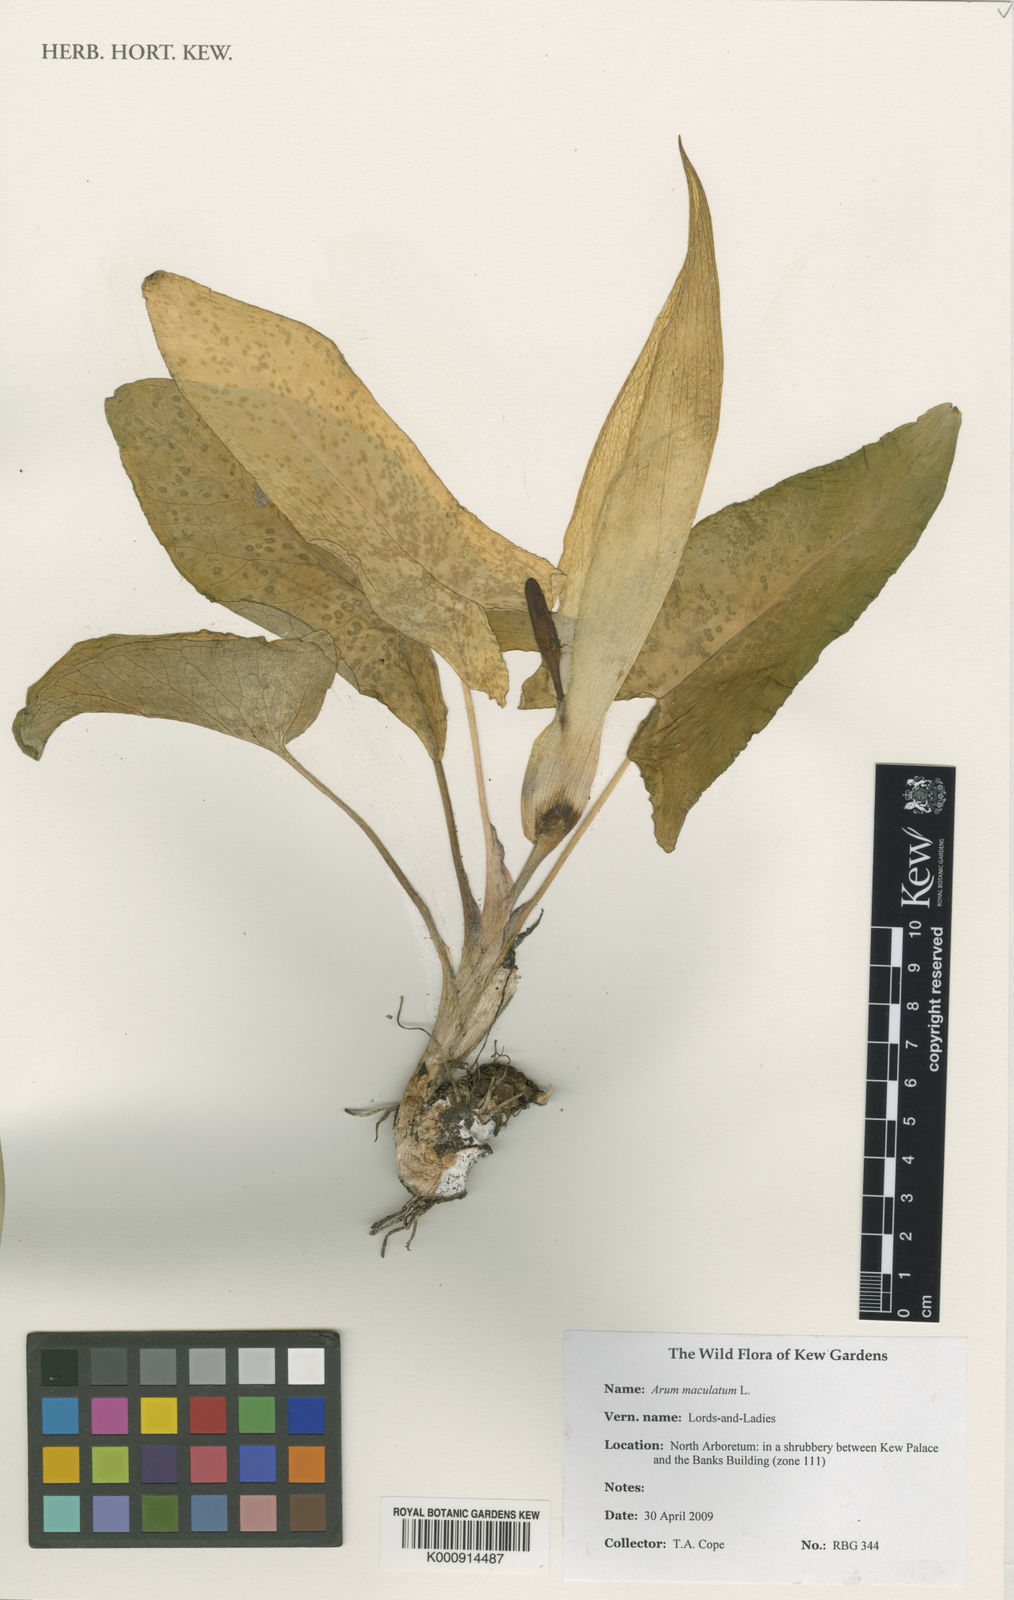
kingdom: Plantae
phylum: Tracheophyta
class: Liliopsida
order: Alismatales
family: Araceae
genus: Arum
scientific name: Arum maculatum
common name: Lords-and-ladies
